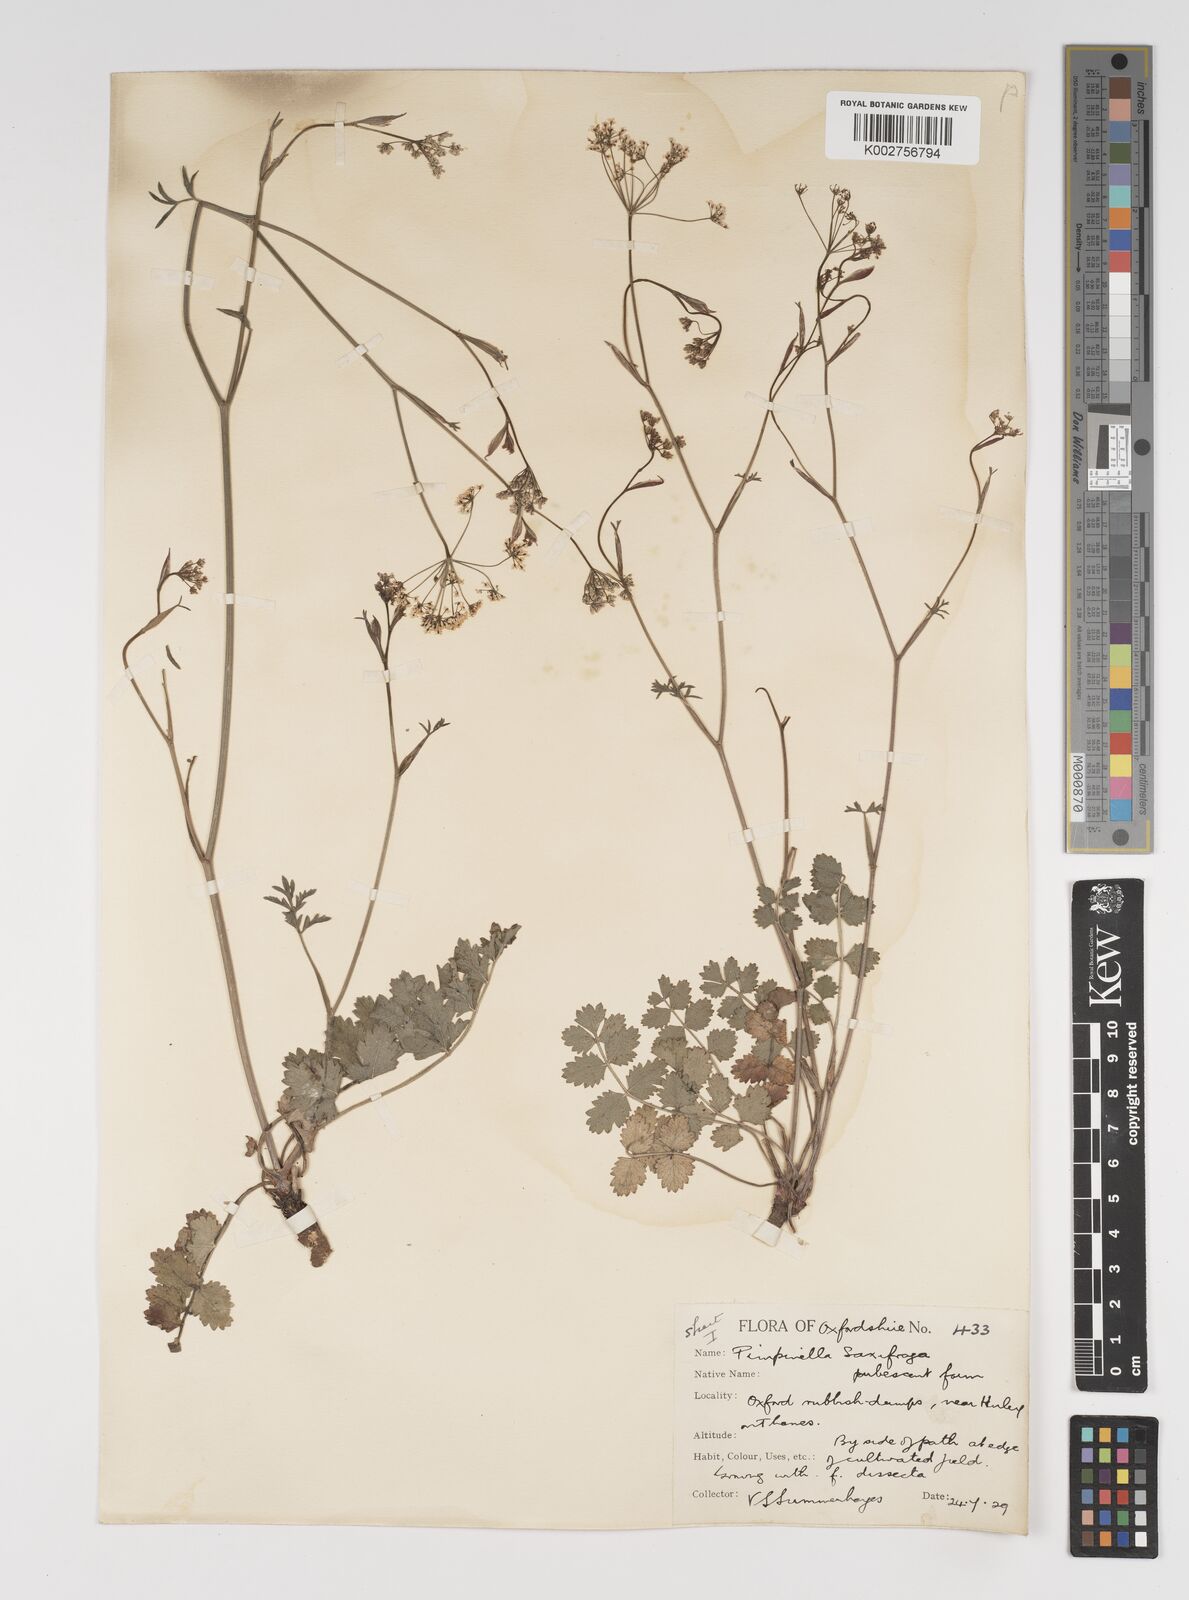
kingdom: Plantae
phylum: Tracheophyta
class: Magnoliopsida
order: Apiales
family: Apiaceae
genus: Pimpinella
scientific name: Pimpinella saxifraga
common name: Burnet-saxifrage
